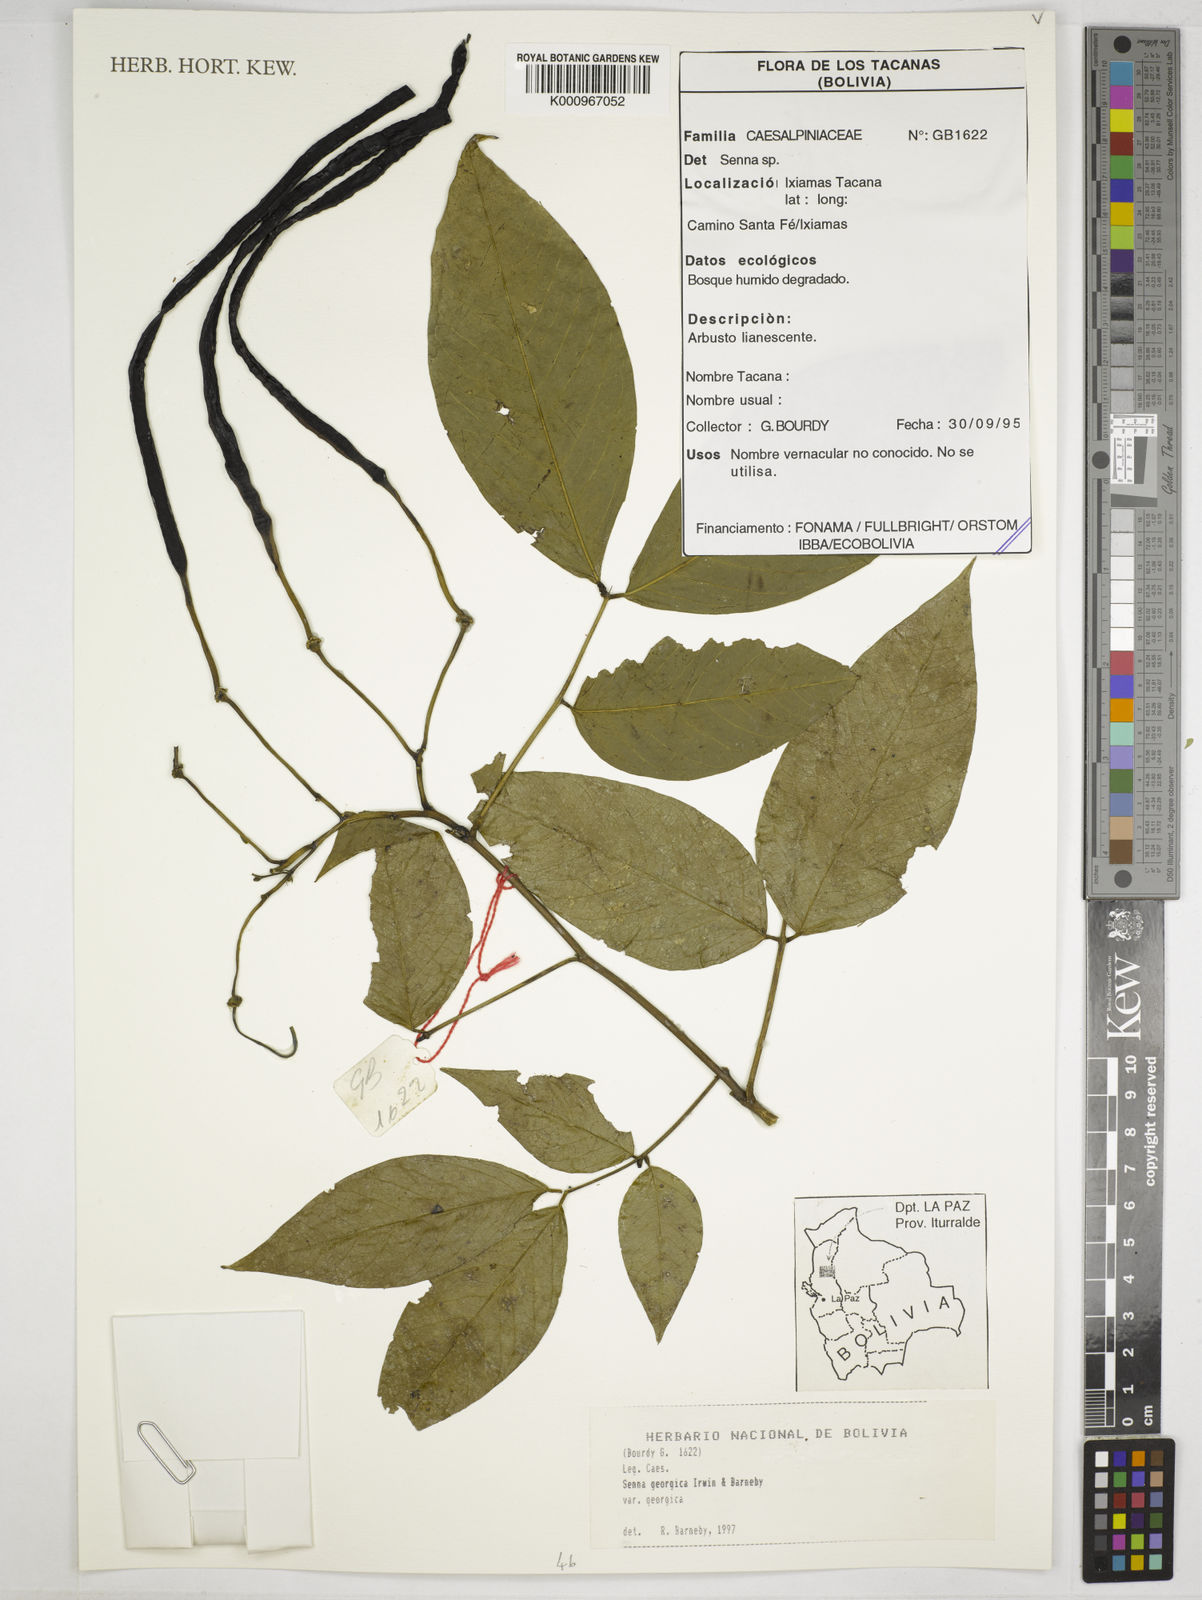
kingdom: Plantae
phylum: Tracheophyta
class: Magnoliopsida
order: Fabales
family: Fabaceae
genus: Senna
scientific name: Senna georgica
